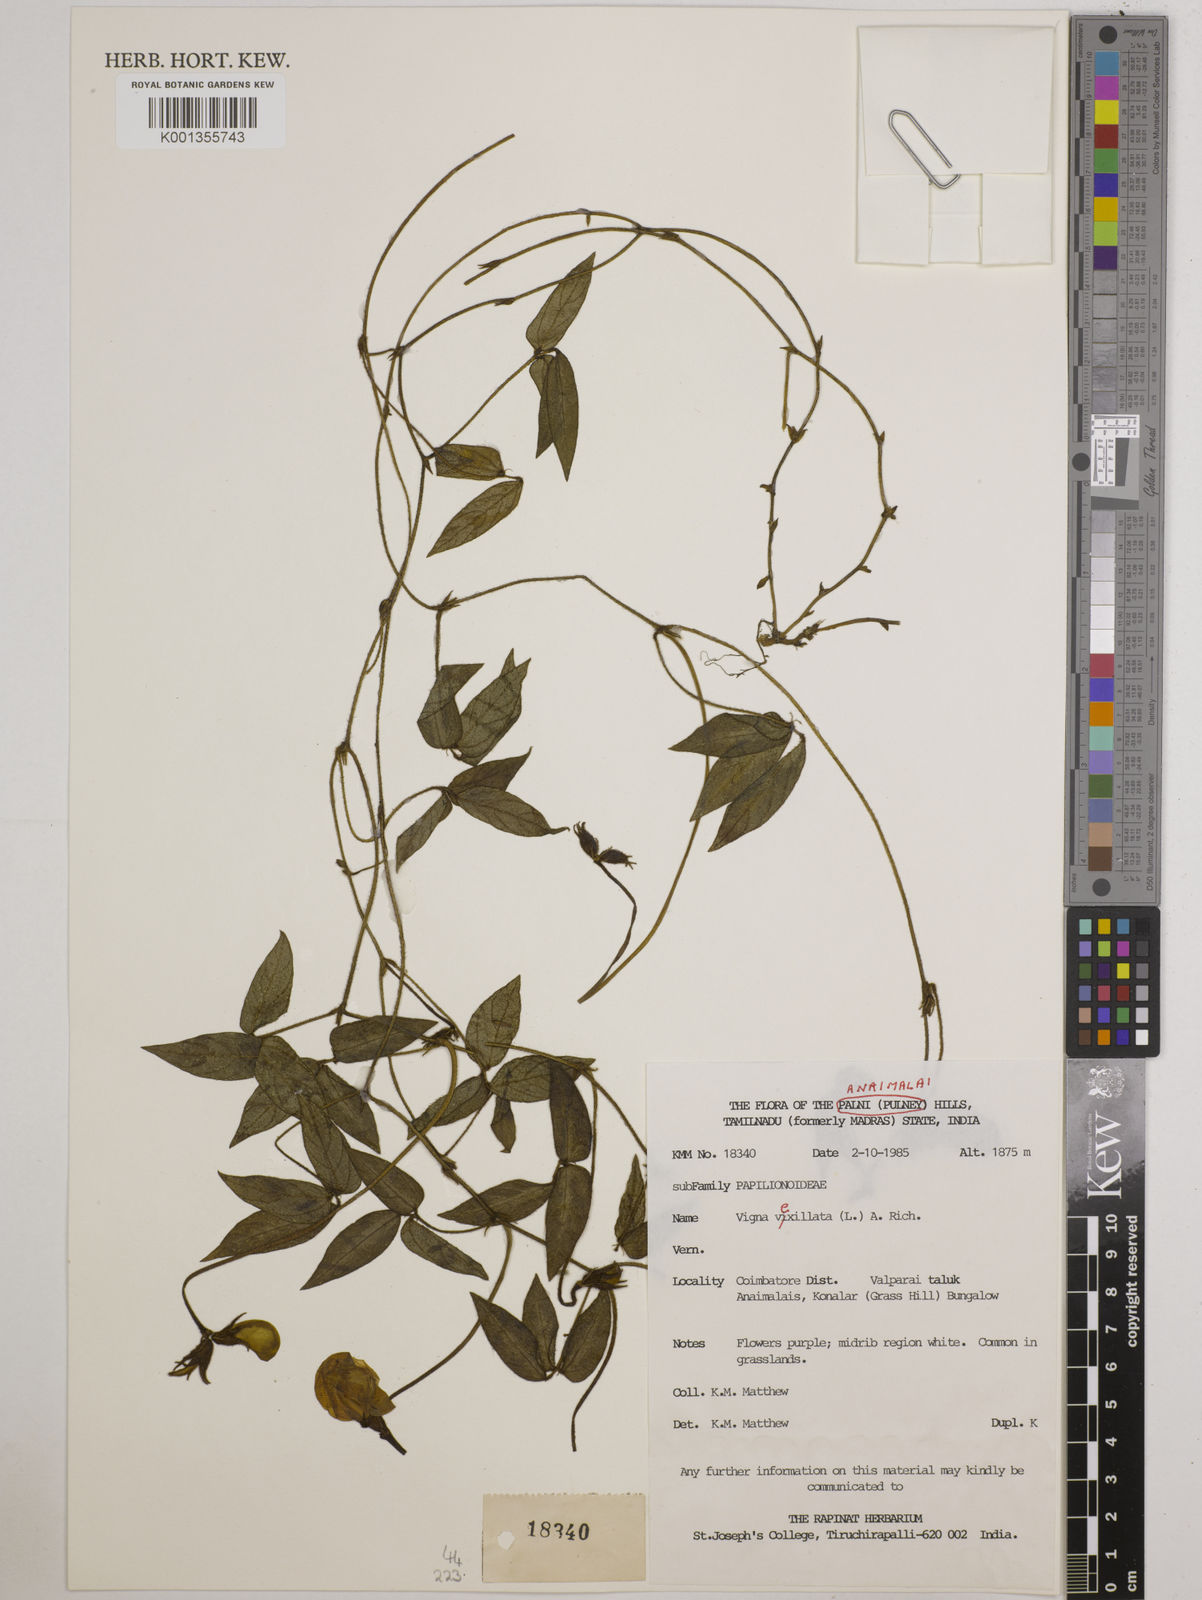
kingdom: Plantae
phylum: Tracheophyta
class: Magnoliopsida
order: Fabales
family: Fabaceae
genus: Vigna
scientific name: Vigna vexillata
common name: Zombi pea
